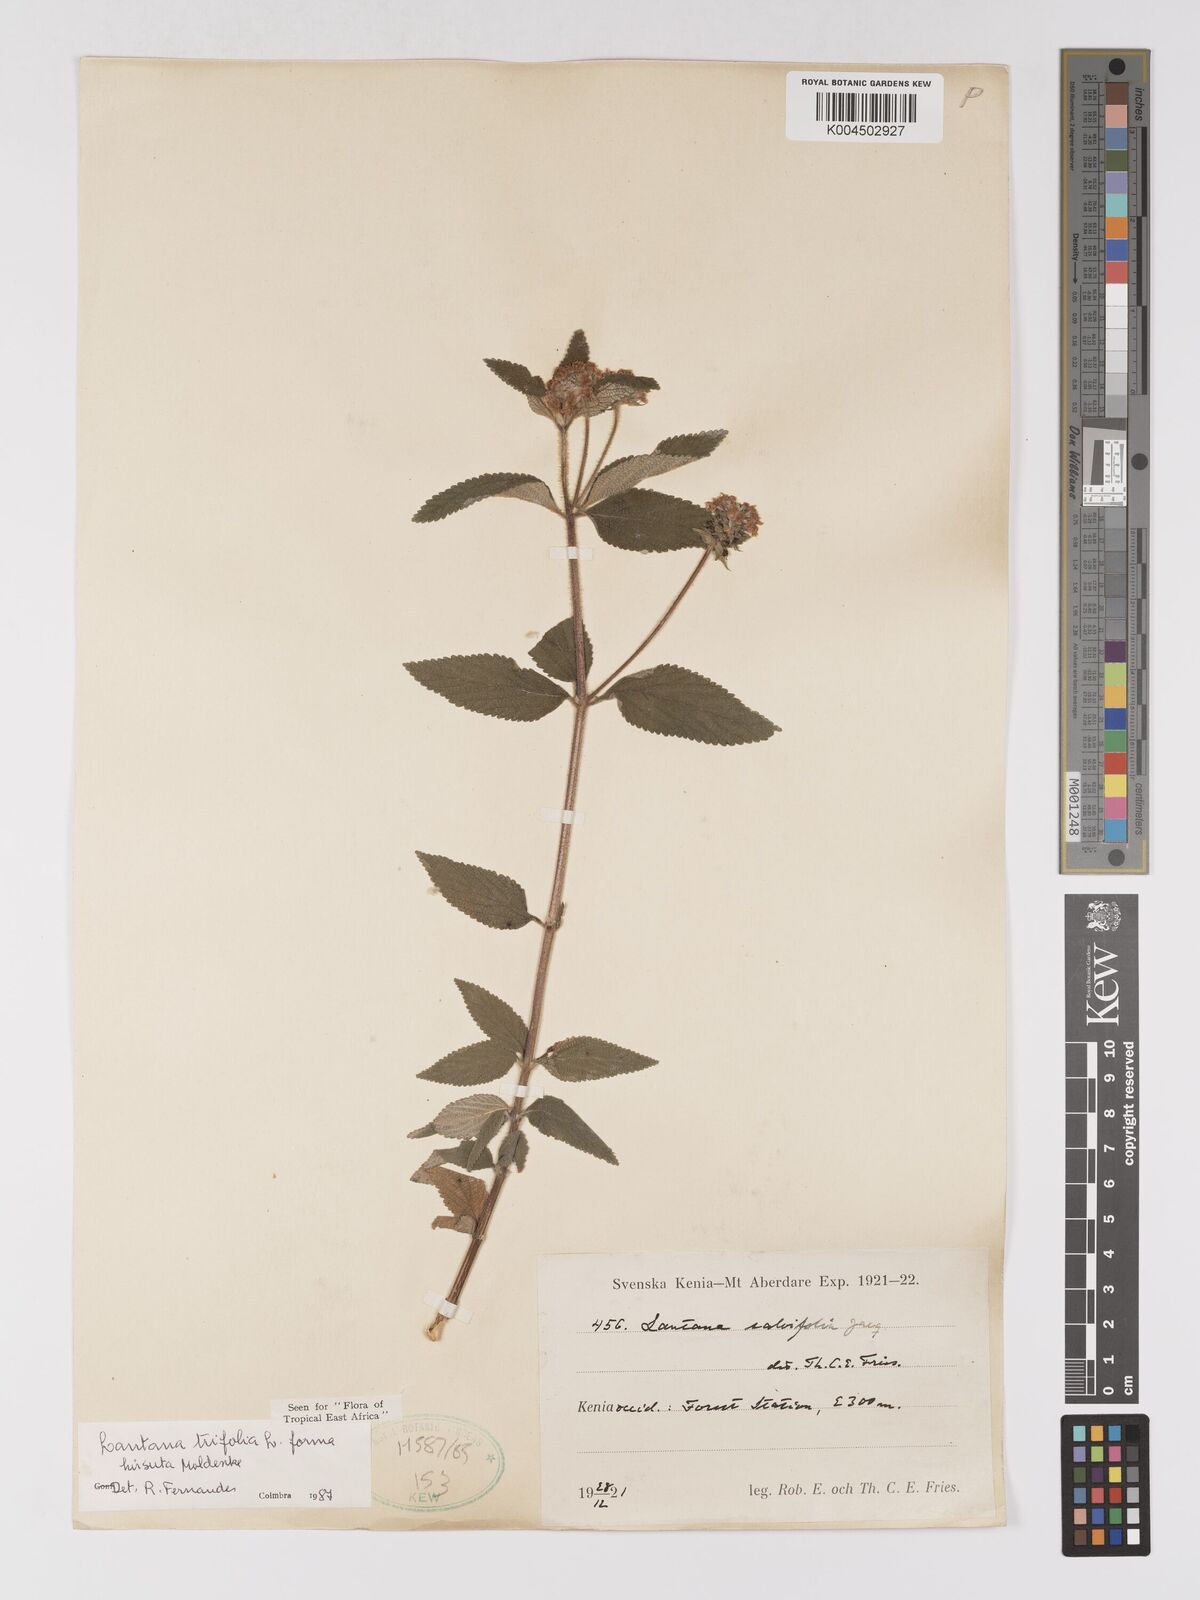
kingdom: Plantae
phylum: Tracheophyta
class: Magnoliopsida
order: Lamiales
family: Verbenaceae
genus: Lantana
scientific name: Lantana trifolia
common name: Sweet-sage
